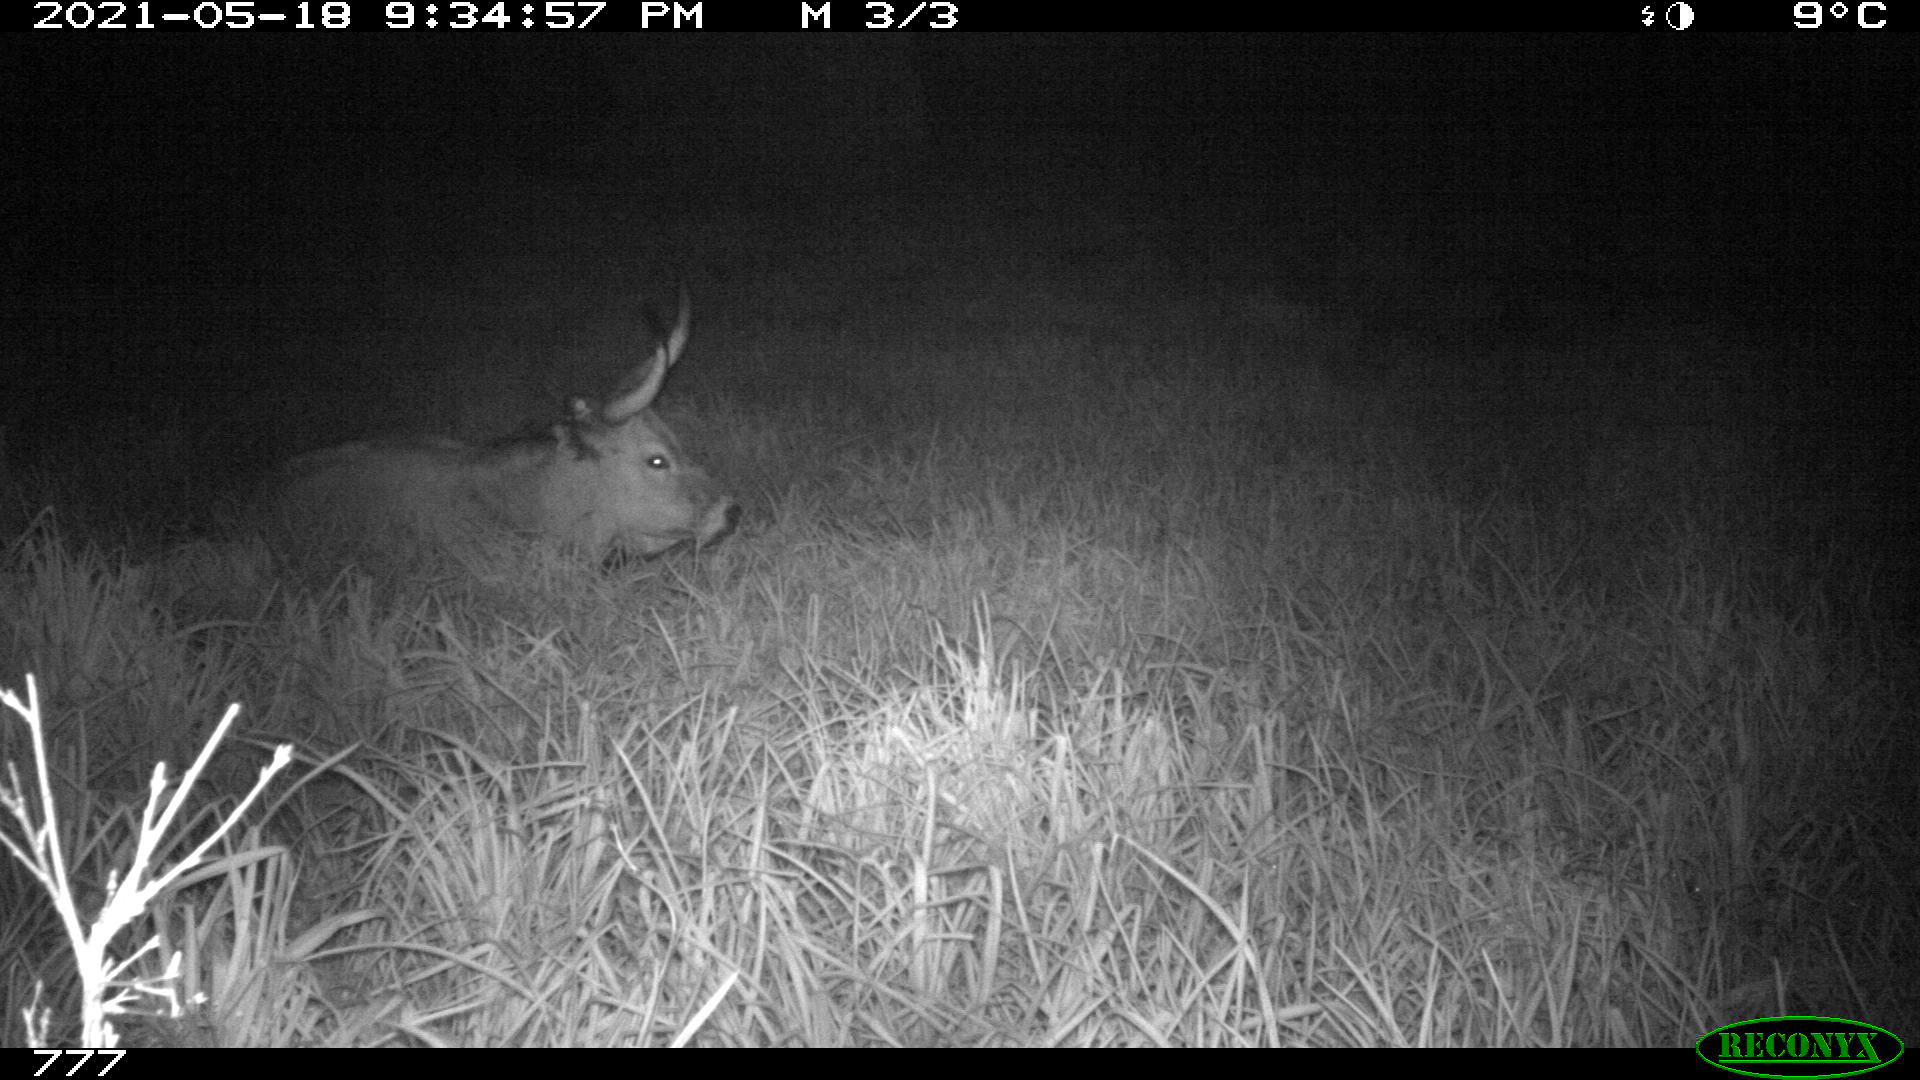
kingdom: Animalia
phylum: Chordata
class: Mammalia
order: Artiodactyla
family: Bovidae
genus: Bos
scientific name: Bos taurus
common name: Domesticated cattle
